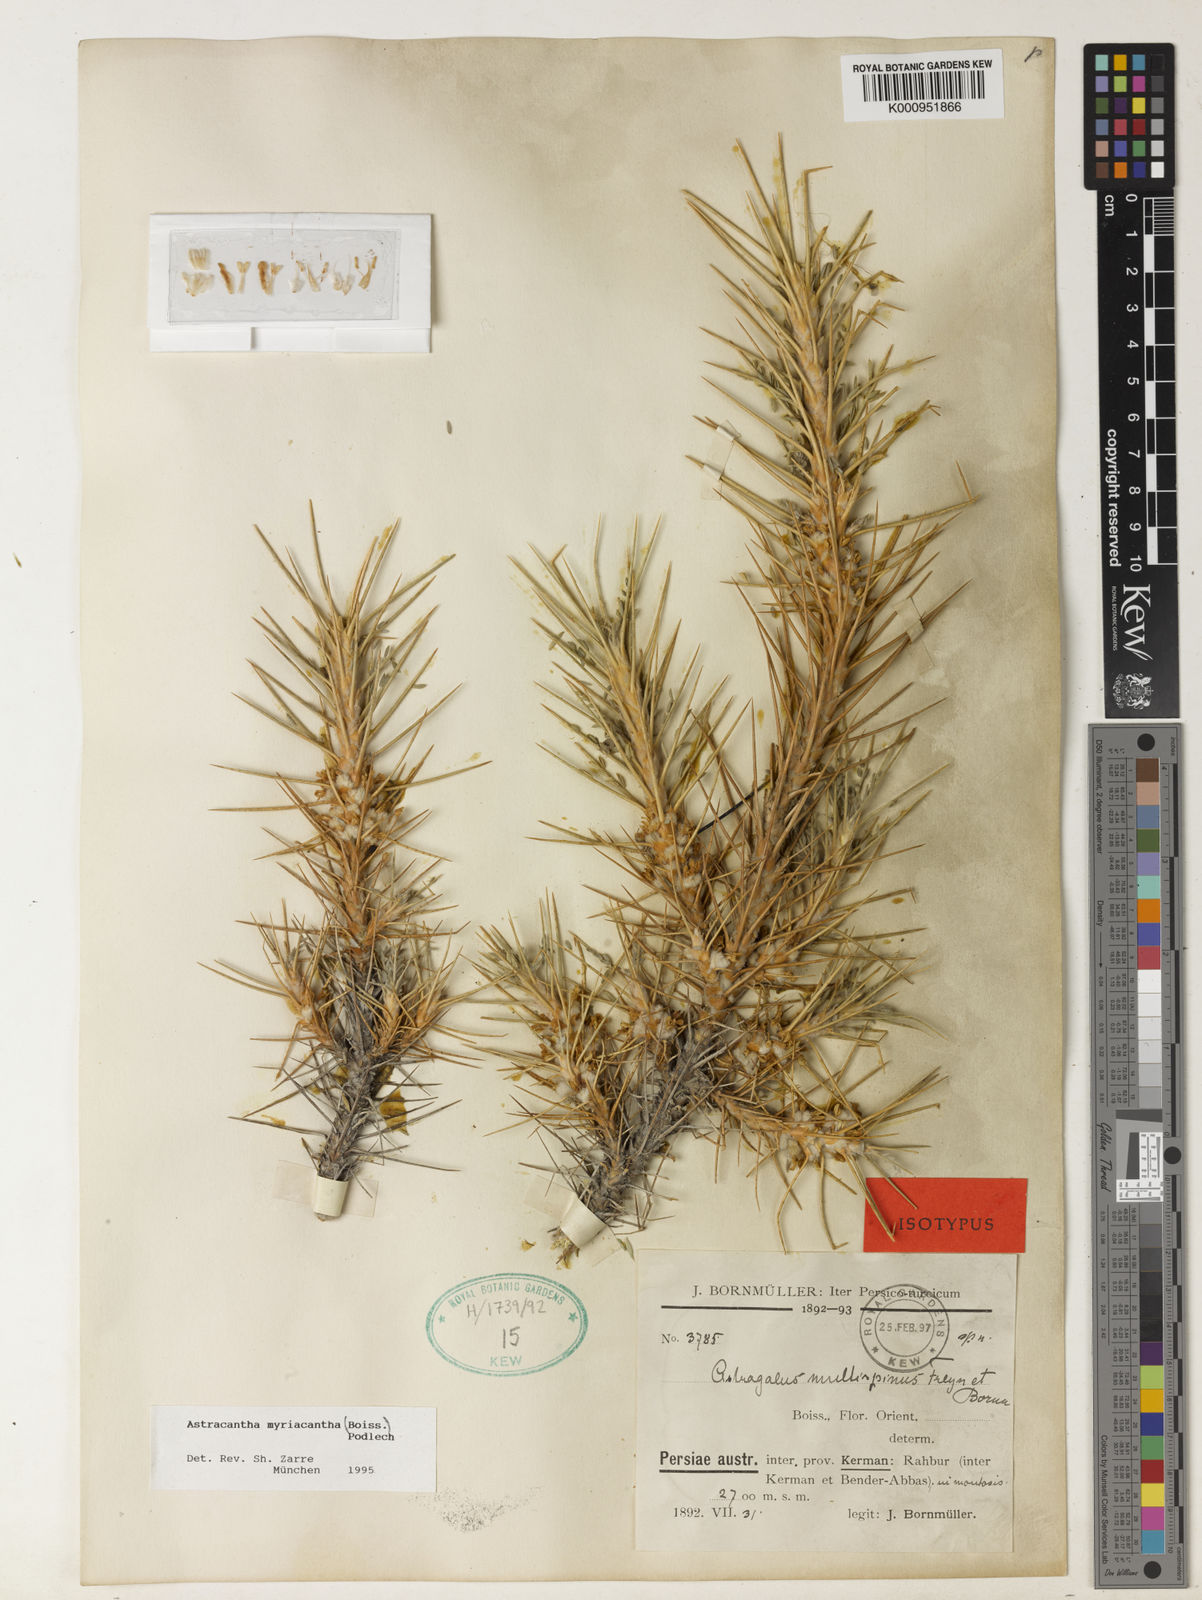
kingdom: Plantae
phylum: Tracheophyta
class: Magnoliopsida
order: Fabales
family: Fabaceae
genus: Astragalus
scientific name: Astragalus myriacanthus
